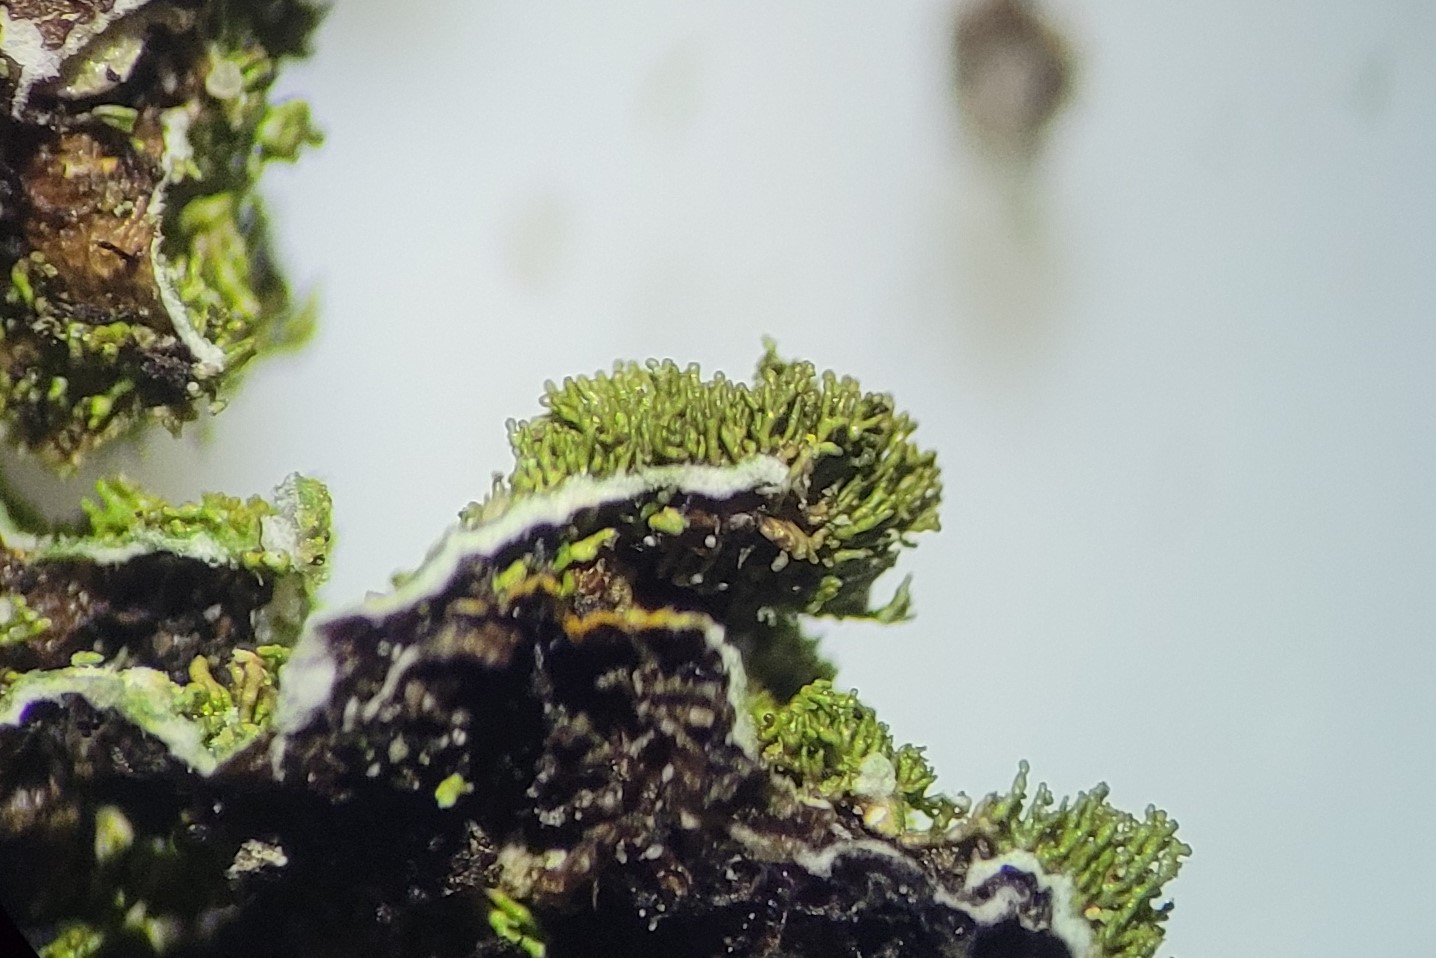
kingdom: Fungi
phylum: Ascomycota
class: Lecanoromycetes
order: Lecanorales
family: Parmeliaceae
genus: Melanelixia
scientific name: Melanelixia glabratula
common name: glinsende skållav
